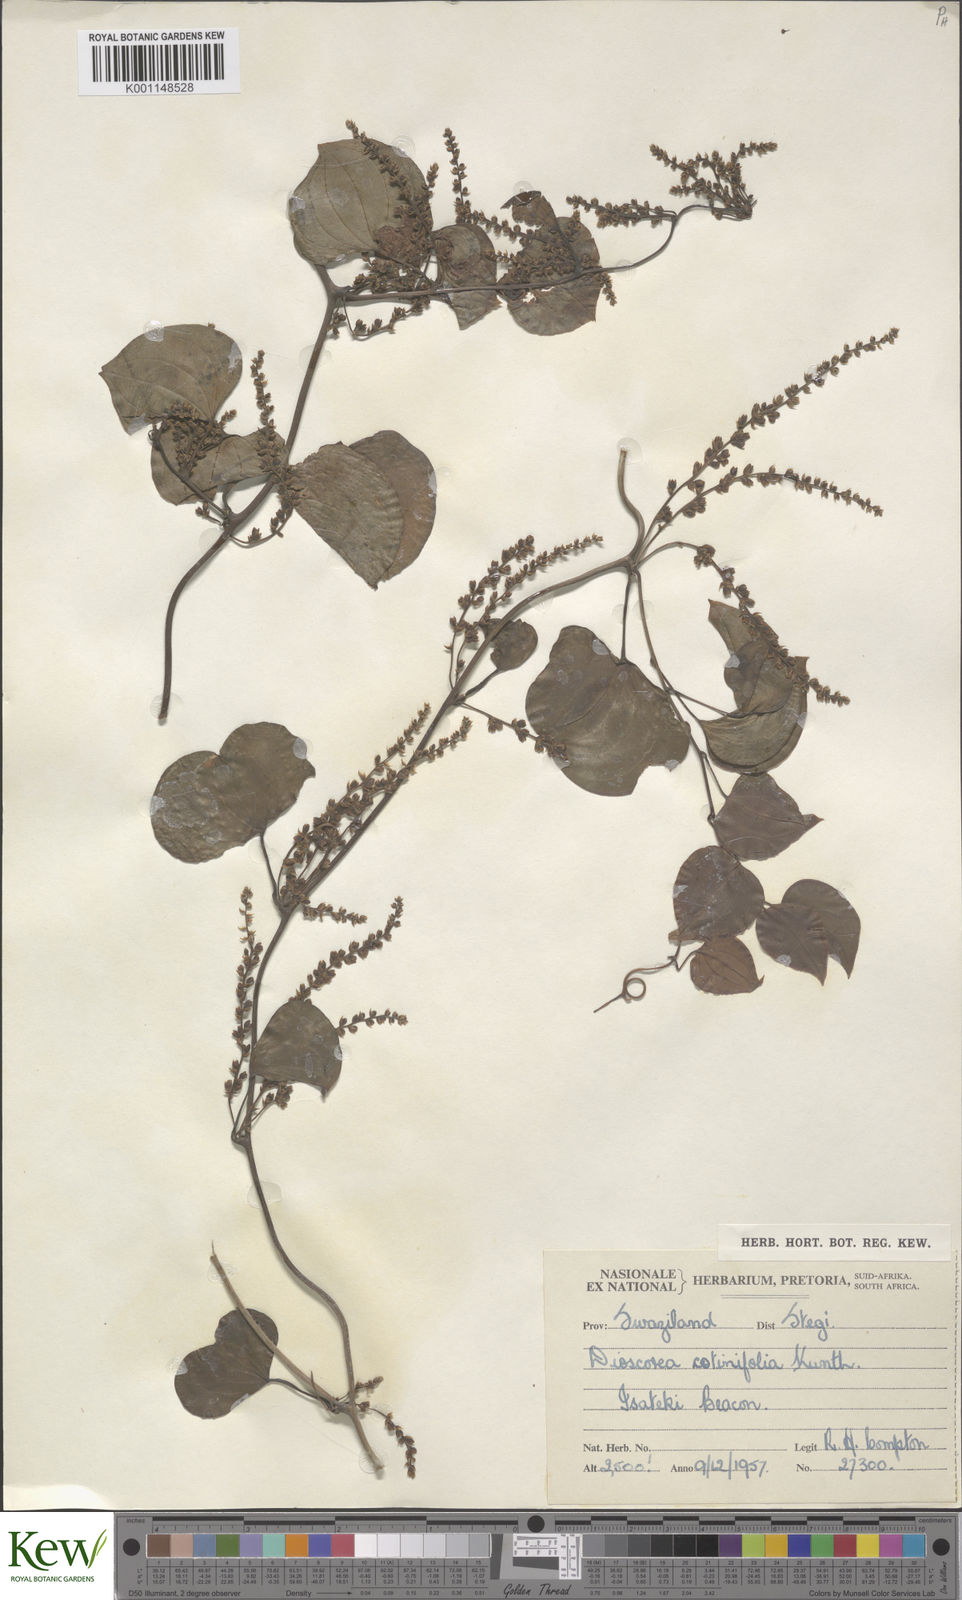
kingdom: Plantae
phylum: Tracheophyta
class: Liliopsida
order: Dioscoreales
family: Dioscoreaceae
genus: Dioscorea
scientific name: Dioscorea cotinifolia
